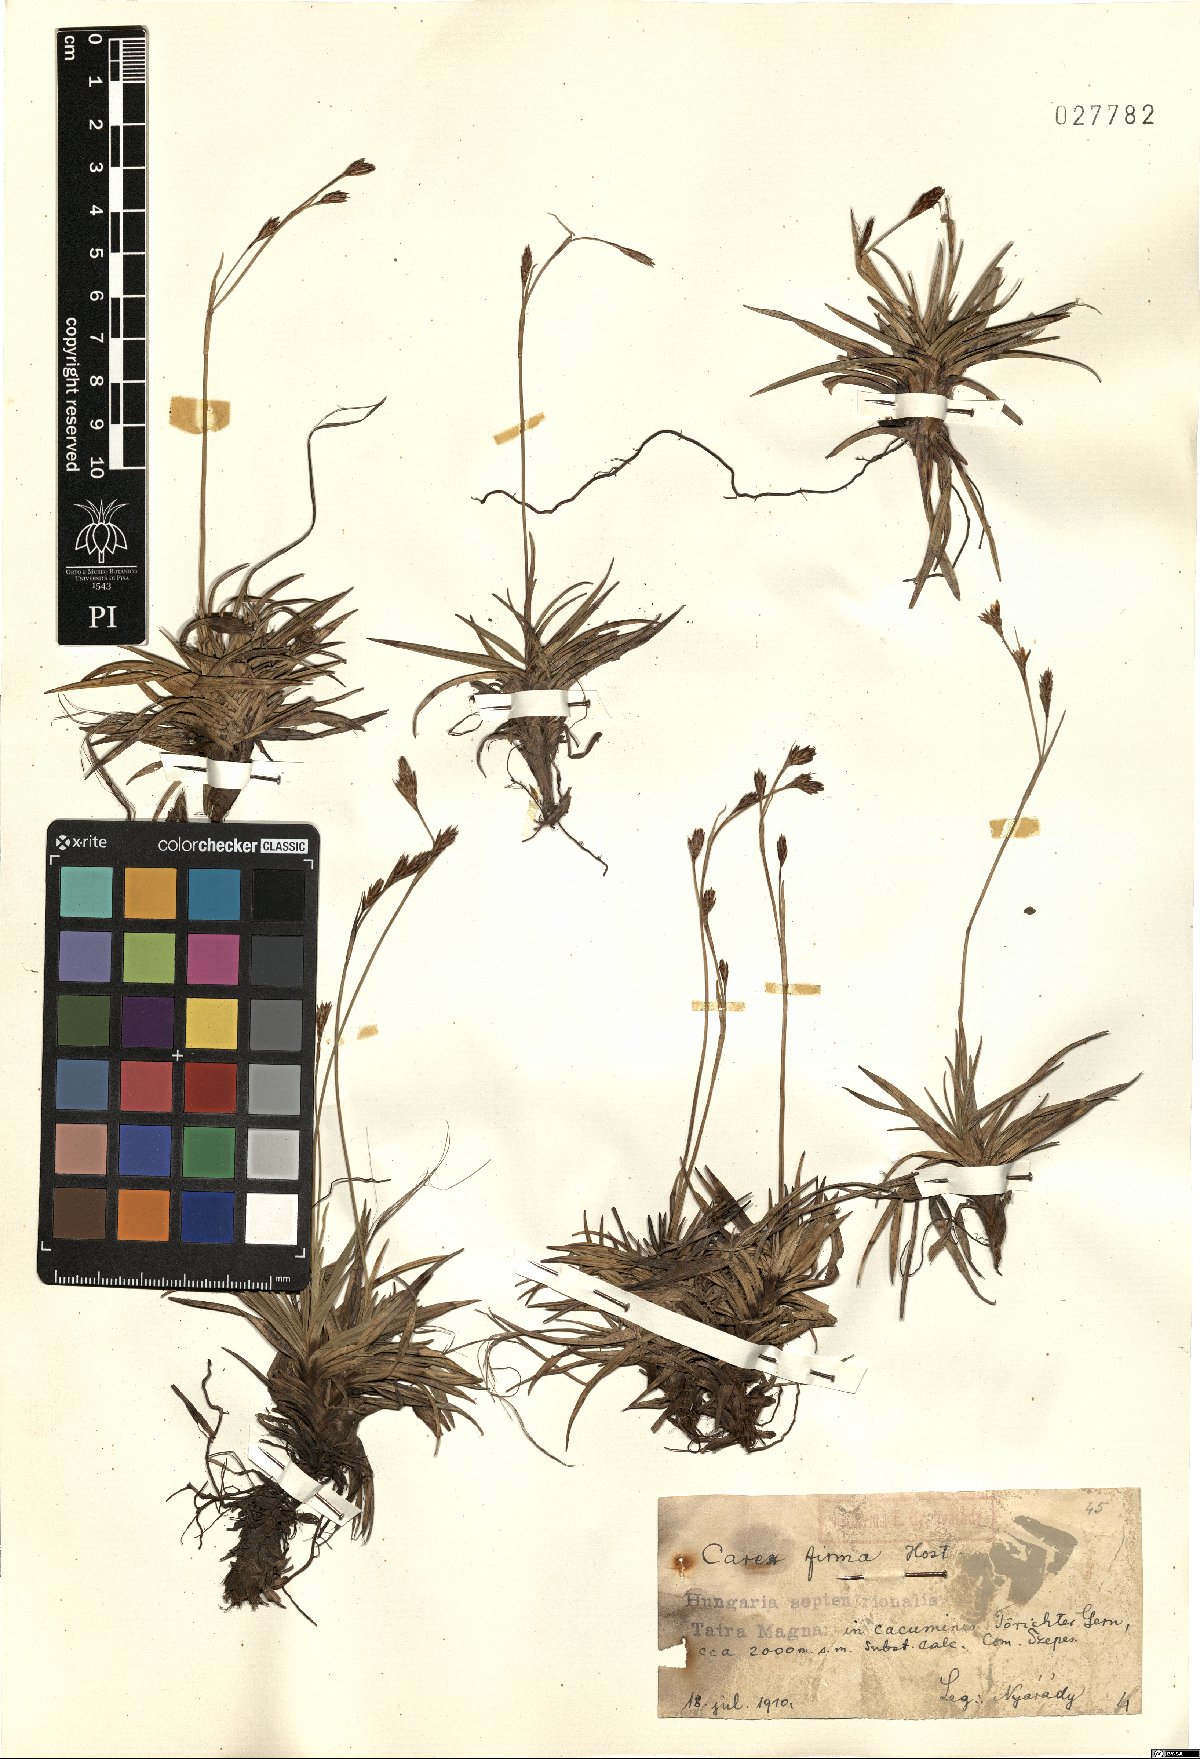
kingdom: Plantae
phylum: Tracheophyta
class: Liliopsida
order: Poales
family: Cyperaceae
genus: Carex
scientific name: Carex firma
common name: Dwarf pillow sedge
